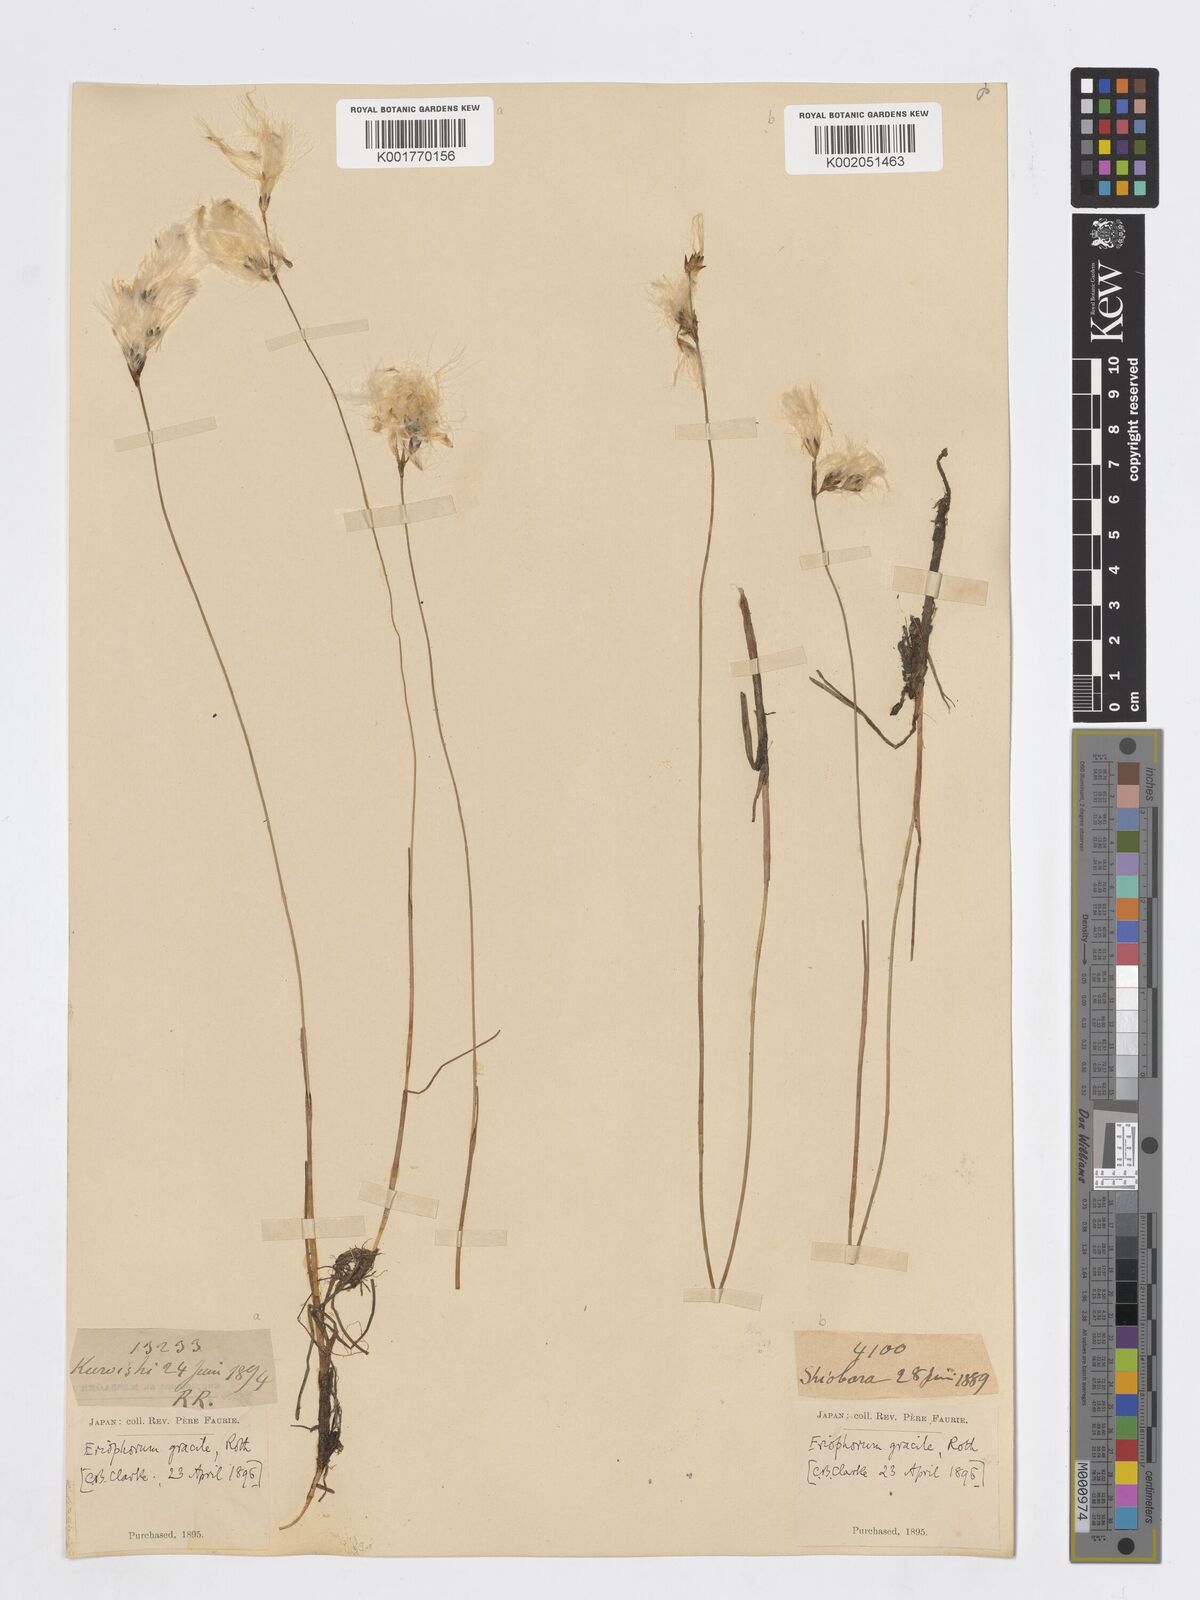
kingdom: Plantae
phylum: Tracheophyta
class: Liliopsida
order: Poales
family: Cyperaceae
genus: Eriophorum
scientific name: Eriophorum gracile
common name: Slender cottongrass
